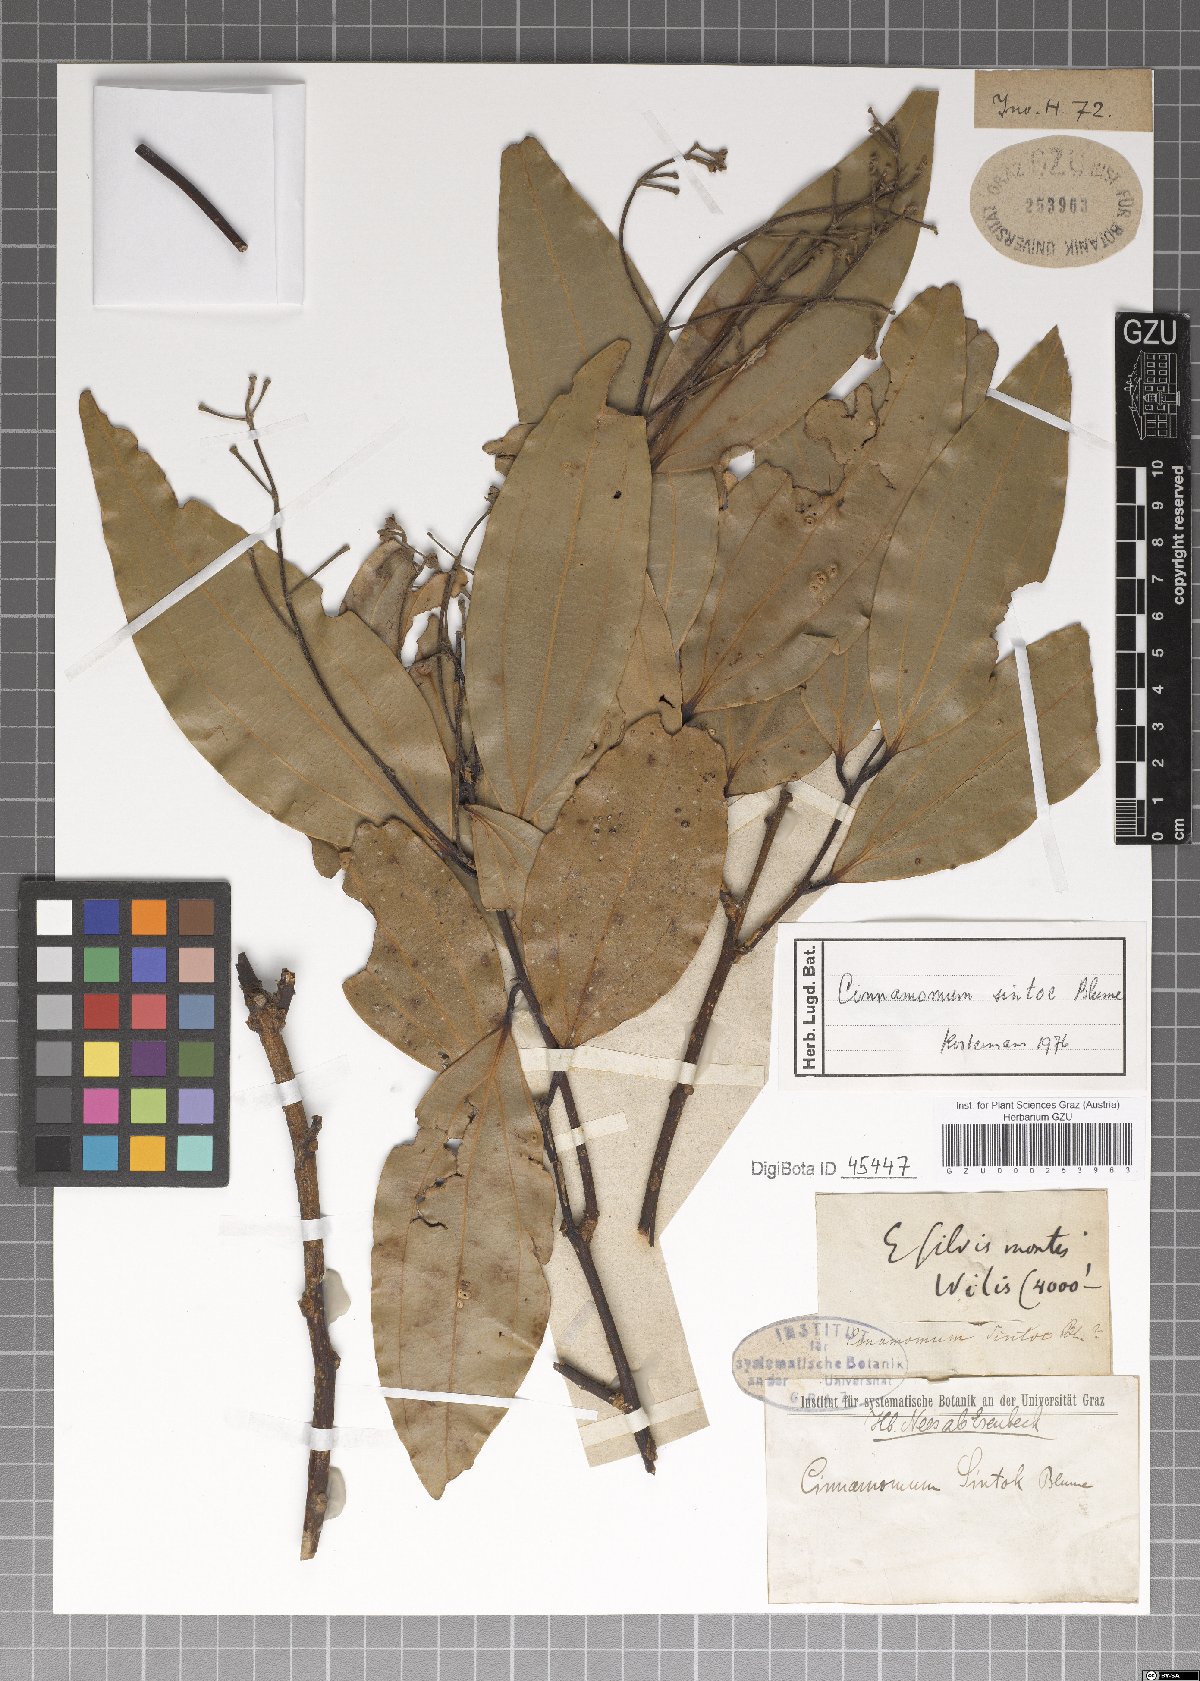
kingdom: Plantae
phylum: Tracheophyta
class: Magnoliopsida
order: Laurales
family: Lauraceae
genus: Cinnamomum
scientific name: Cinnamomum sintoc
